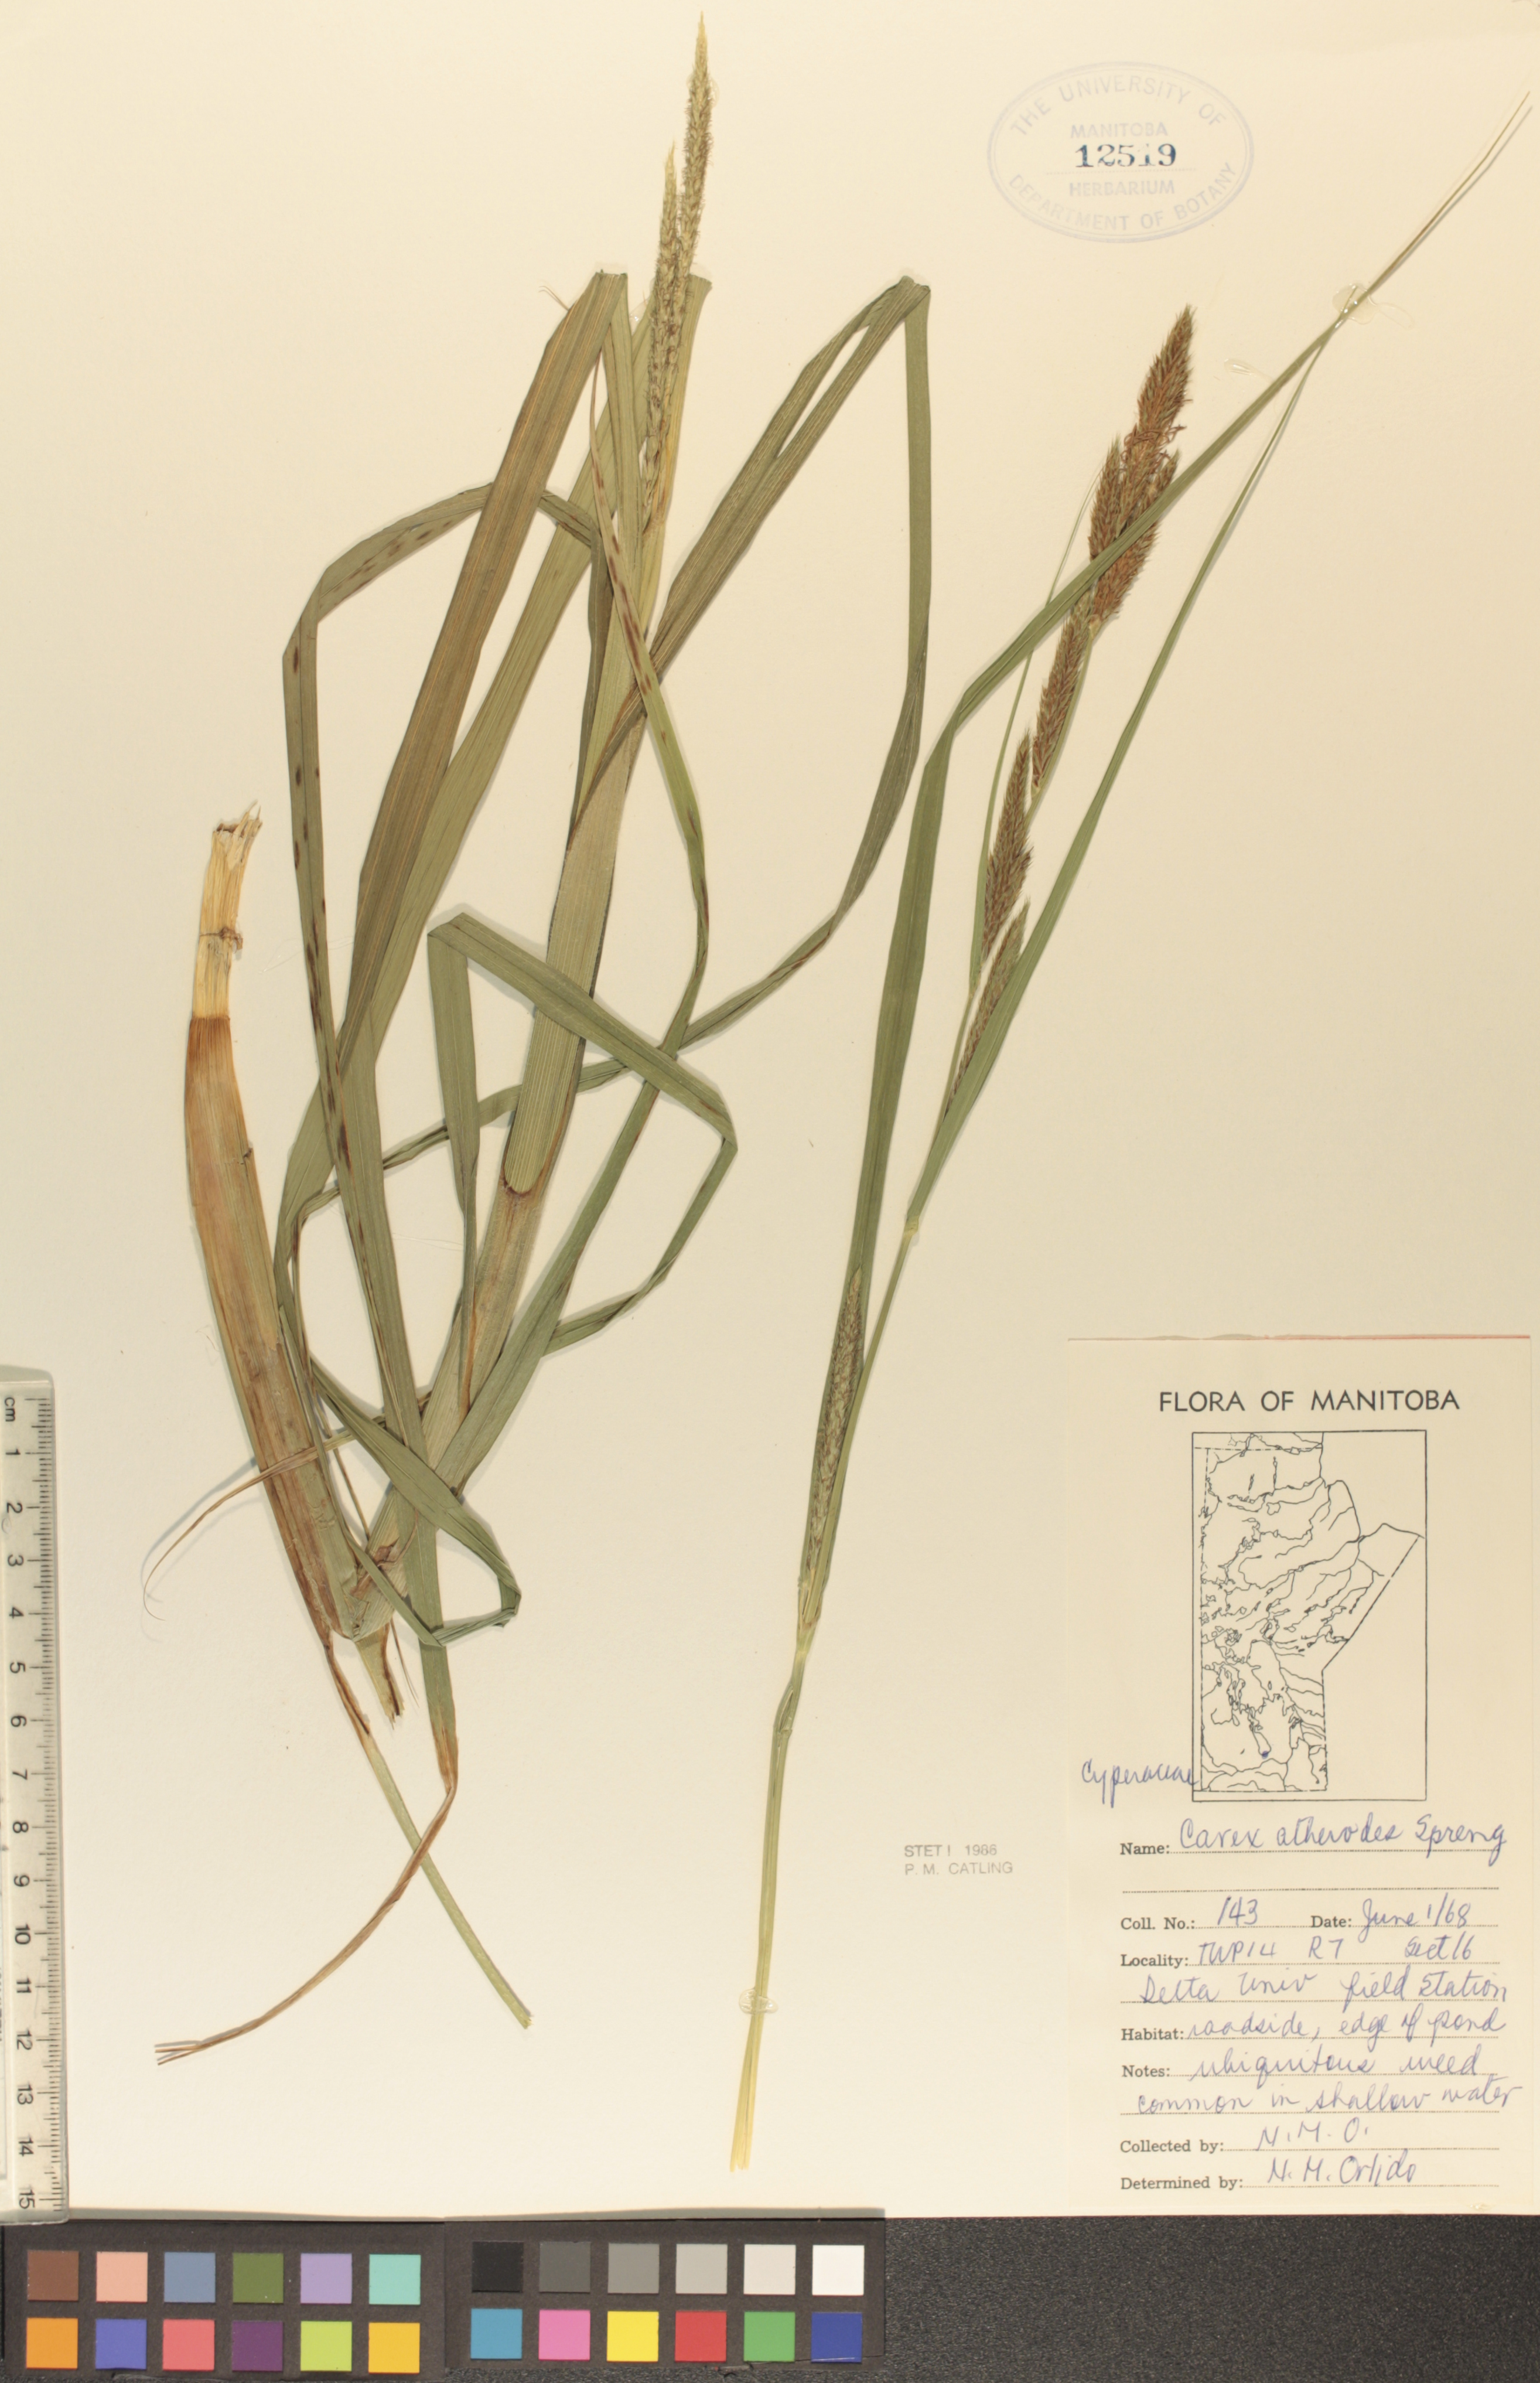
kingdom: Plantae
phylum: Tracheophyta
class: Liliopsida
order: Poales
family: Cyperaceae
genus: Carex
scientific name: Carex atherodes
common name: Wheat sedge
